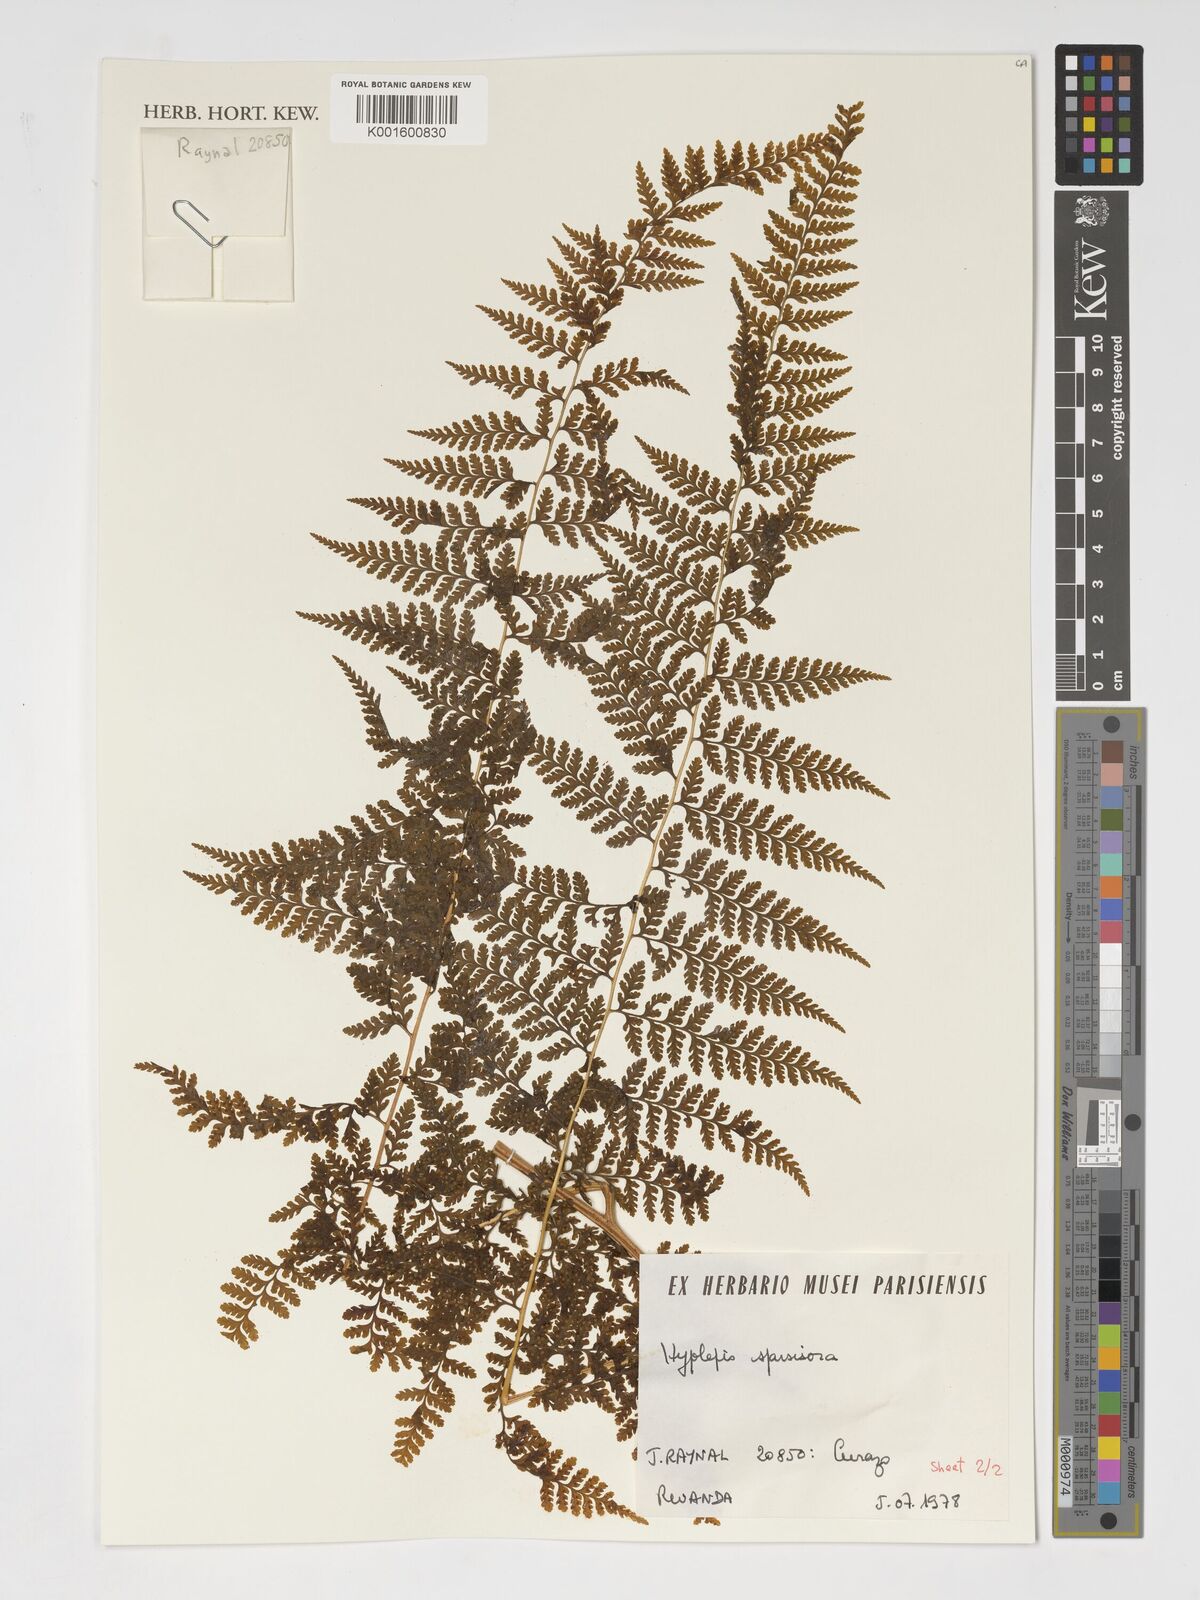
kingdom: Plantae
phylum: Tracheophyta
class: Polypodiopsida
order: Polypodiales
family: Dennstaedtiaceae
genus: Hypolepis
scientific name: Hypolepis sparsisora
